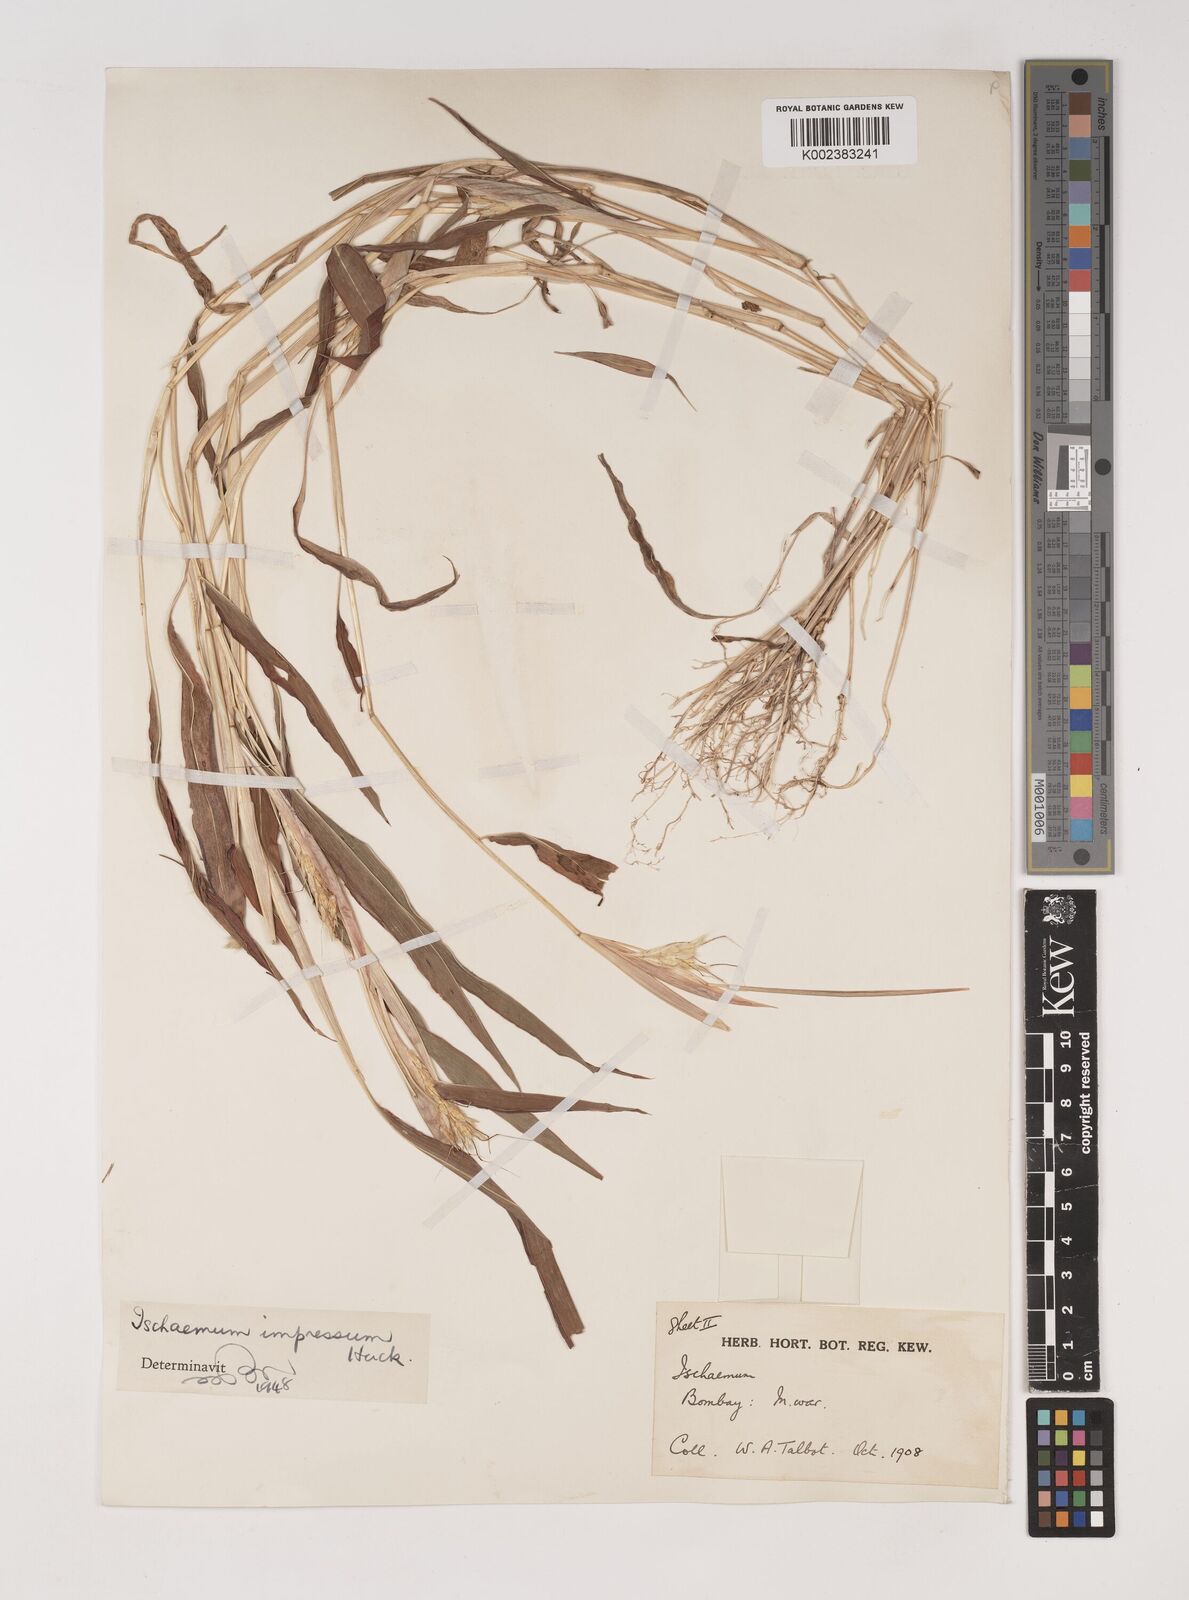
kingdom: Plantae
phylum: Tracheophyta
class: Liliopsida
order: Poales
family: Poaceae
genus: Ischaemum
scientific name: Ischaemum impressum
